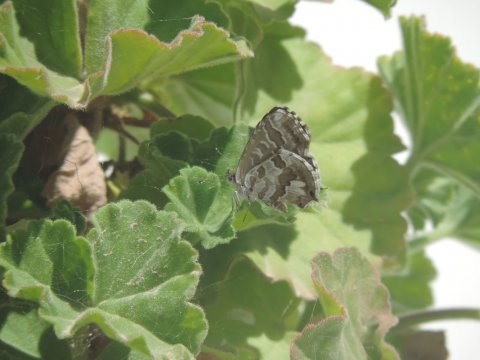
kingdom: Animalia
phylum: Arthropoda
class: Insecta
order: Lepidoptera
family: Lycaenidae
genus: Cacyreus
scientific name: Cacyreus marshalli
